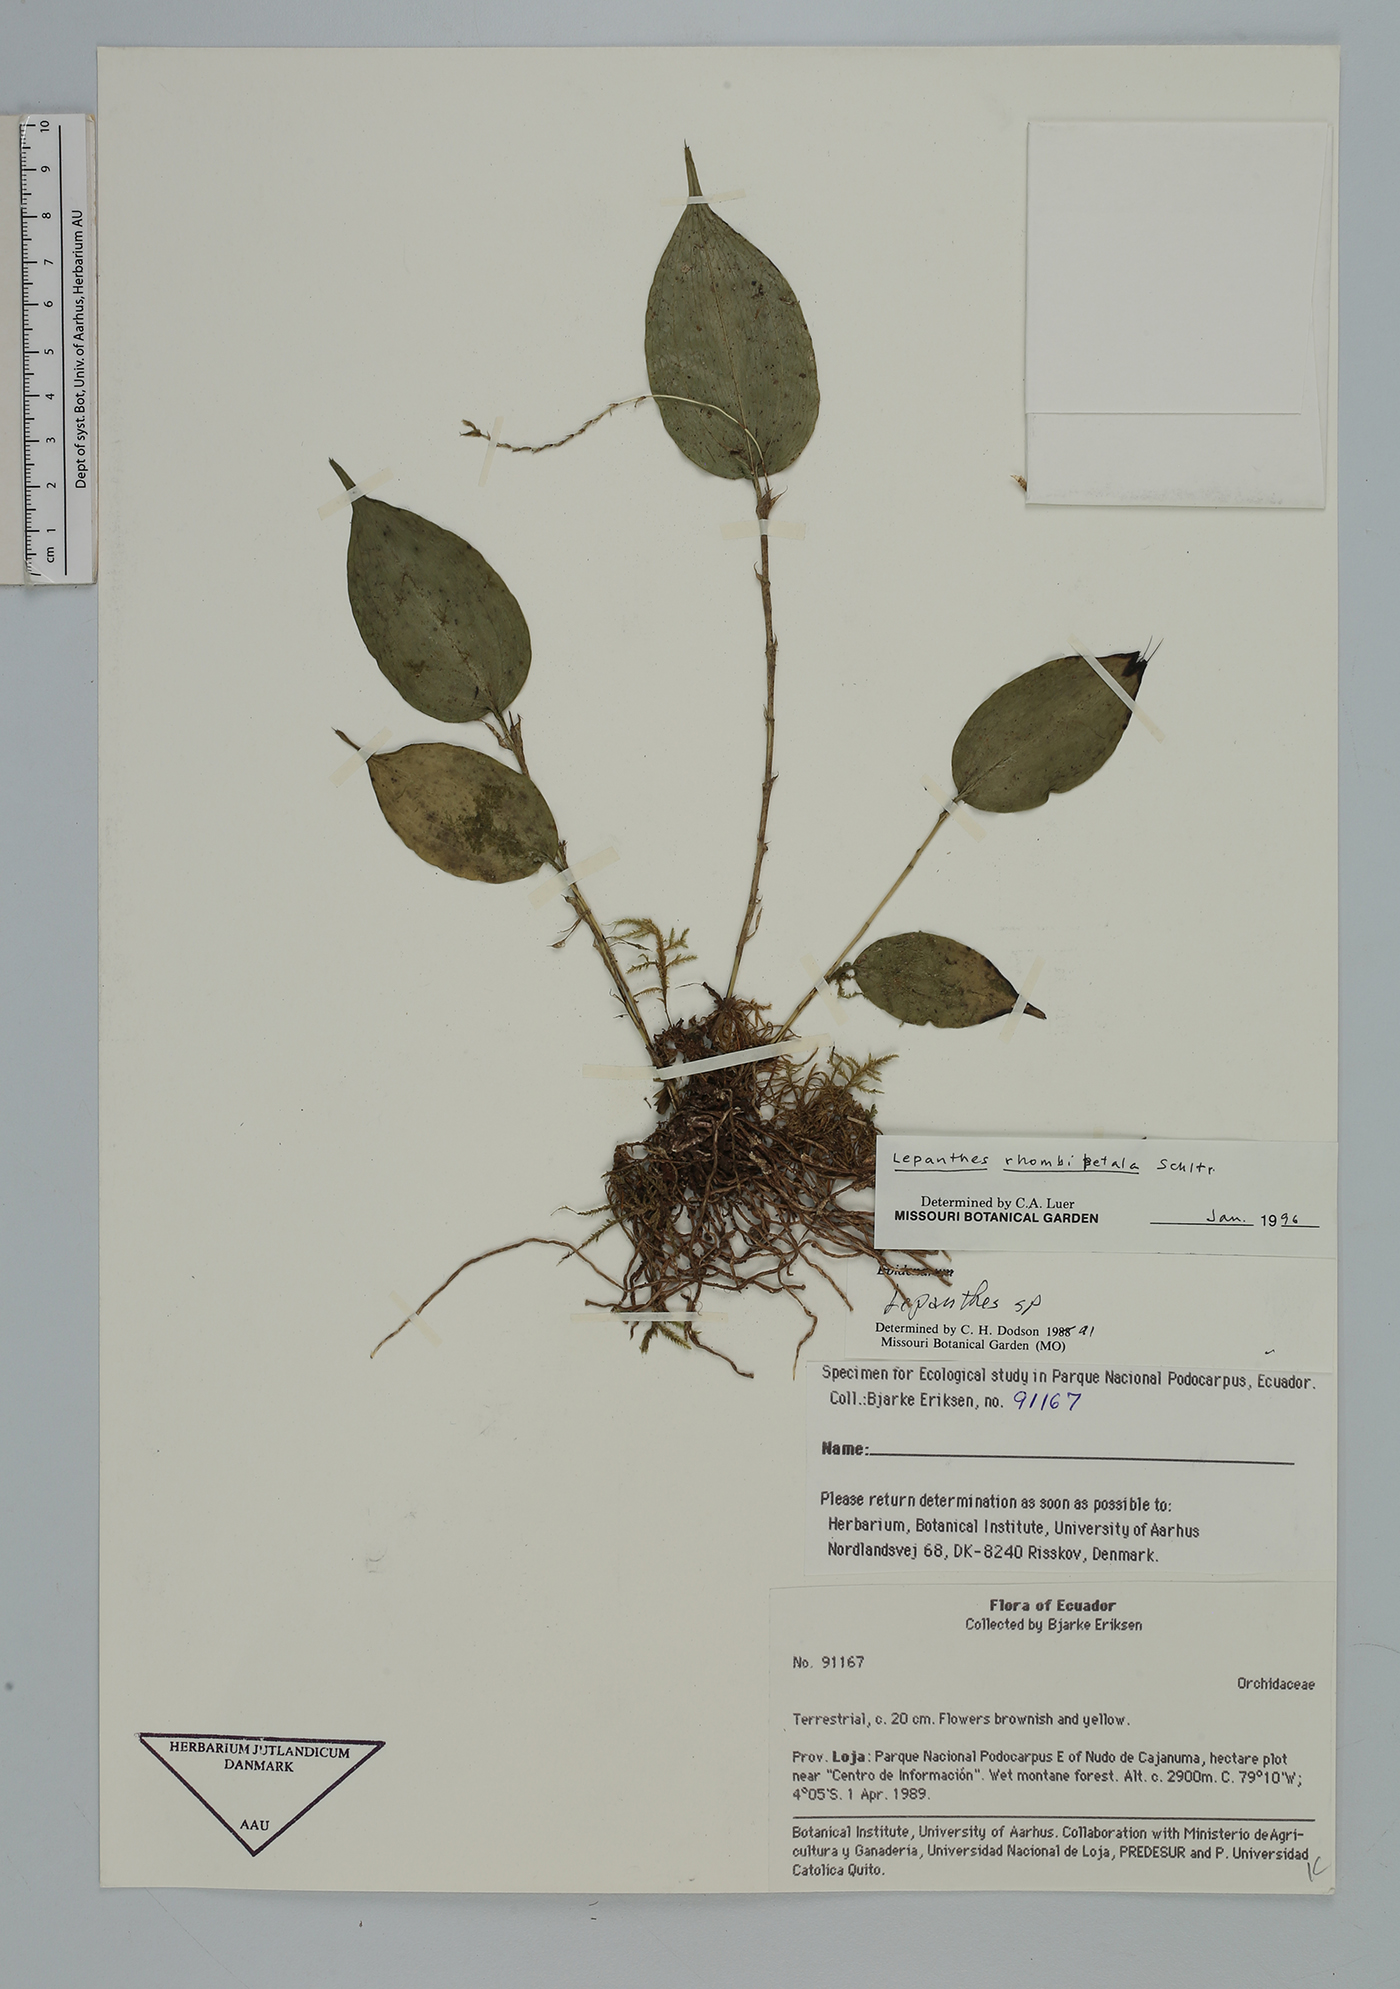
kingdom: Plantae
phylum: Tracheophyta
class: Liliopsida
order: Asparagales
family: Orchidaceae
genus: Lepanthes
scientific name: Lepanthes rhombipetala
